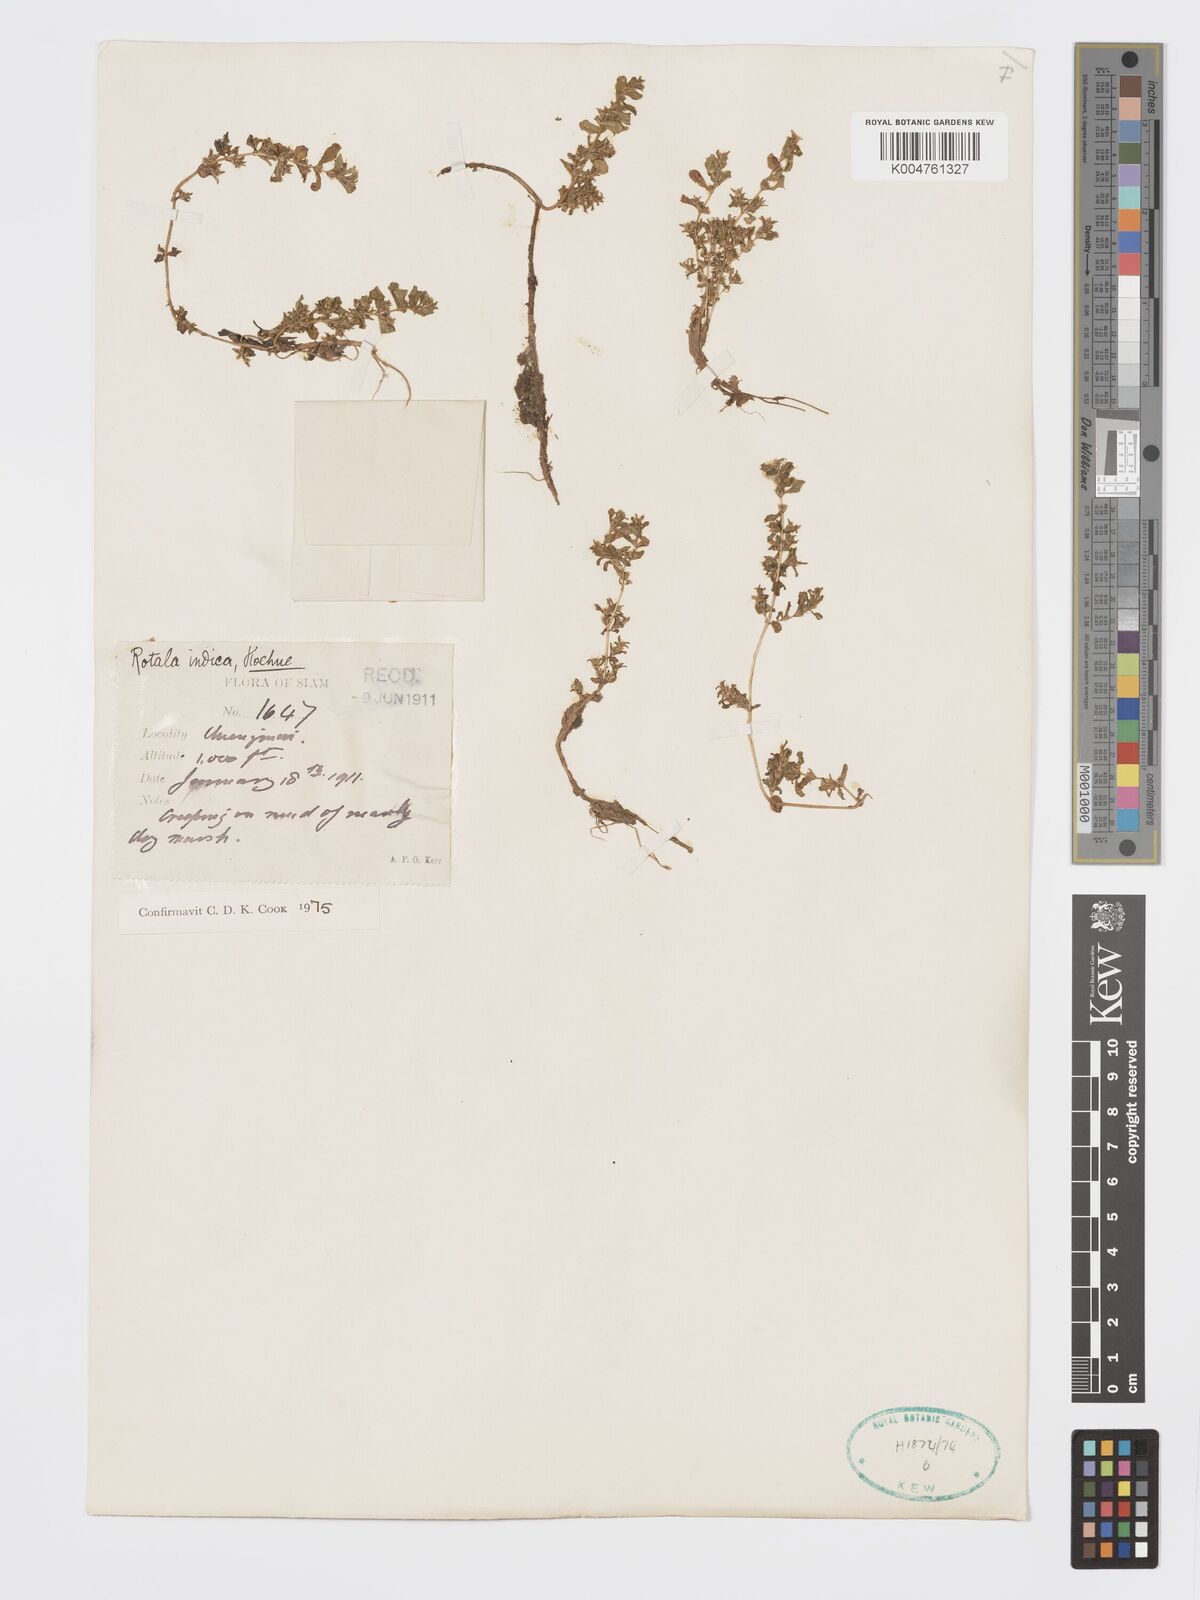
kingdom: Plantae
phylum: Tracheophyta
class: Magnoliopsida
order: Myrtales
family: Lythraceae
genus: Rotala
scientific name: Rotala indica
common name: Indian toothcup
